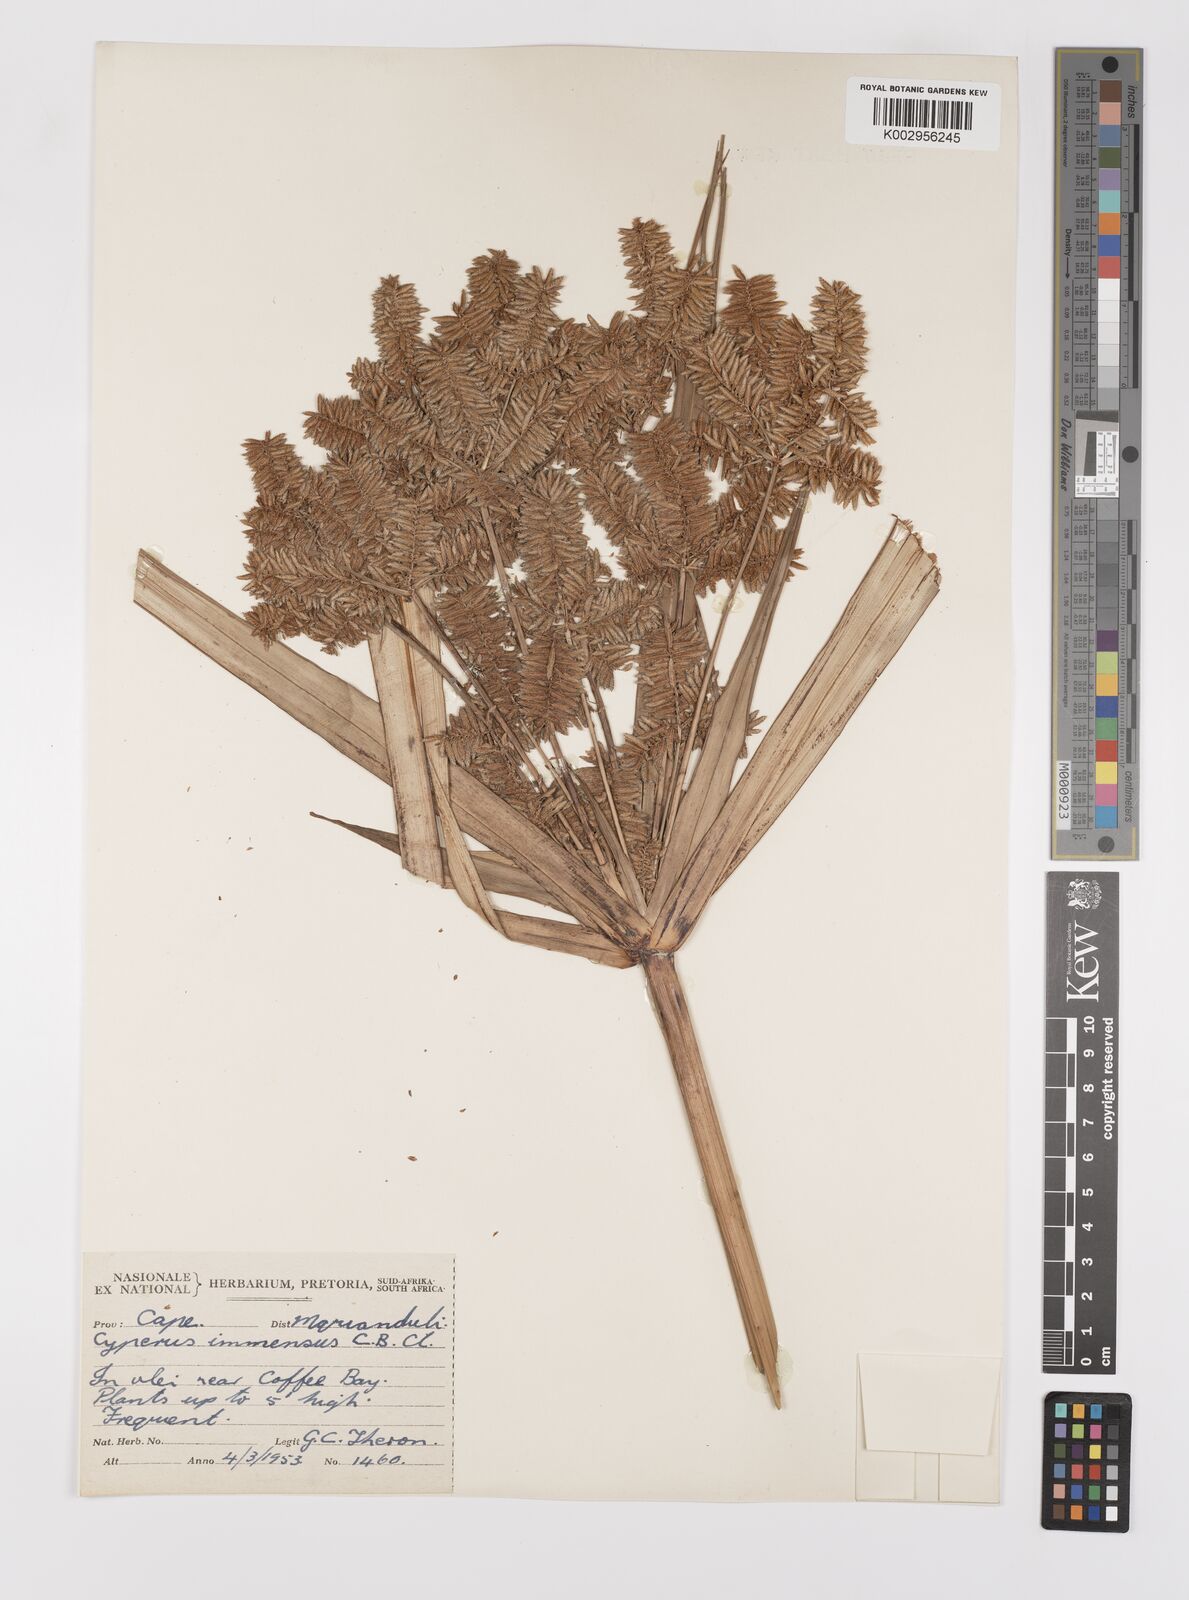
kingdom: Plantae
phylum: Tracheophyta
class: Liliopsida
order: Poales
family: Cyperaceae
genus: Cyperus
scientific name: Cyperus dives
